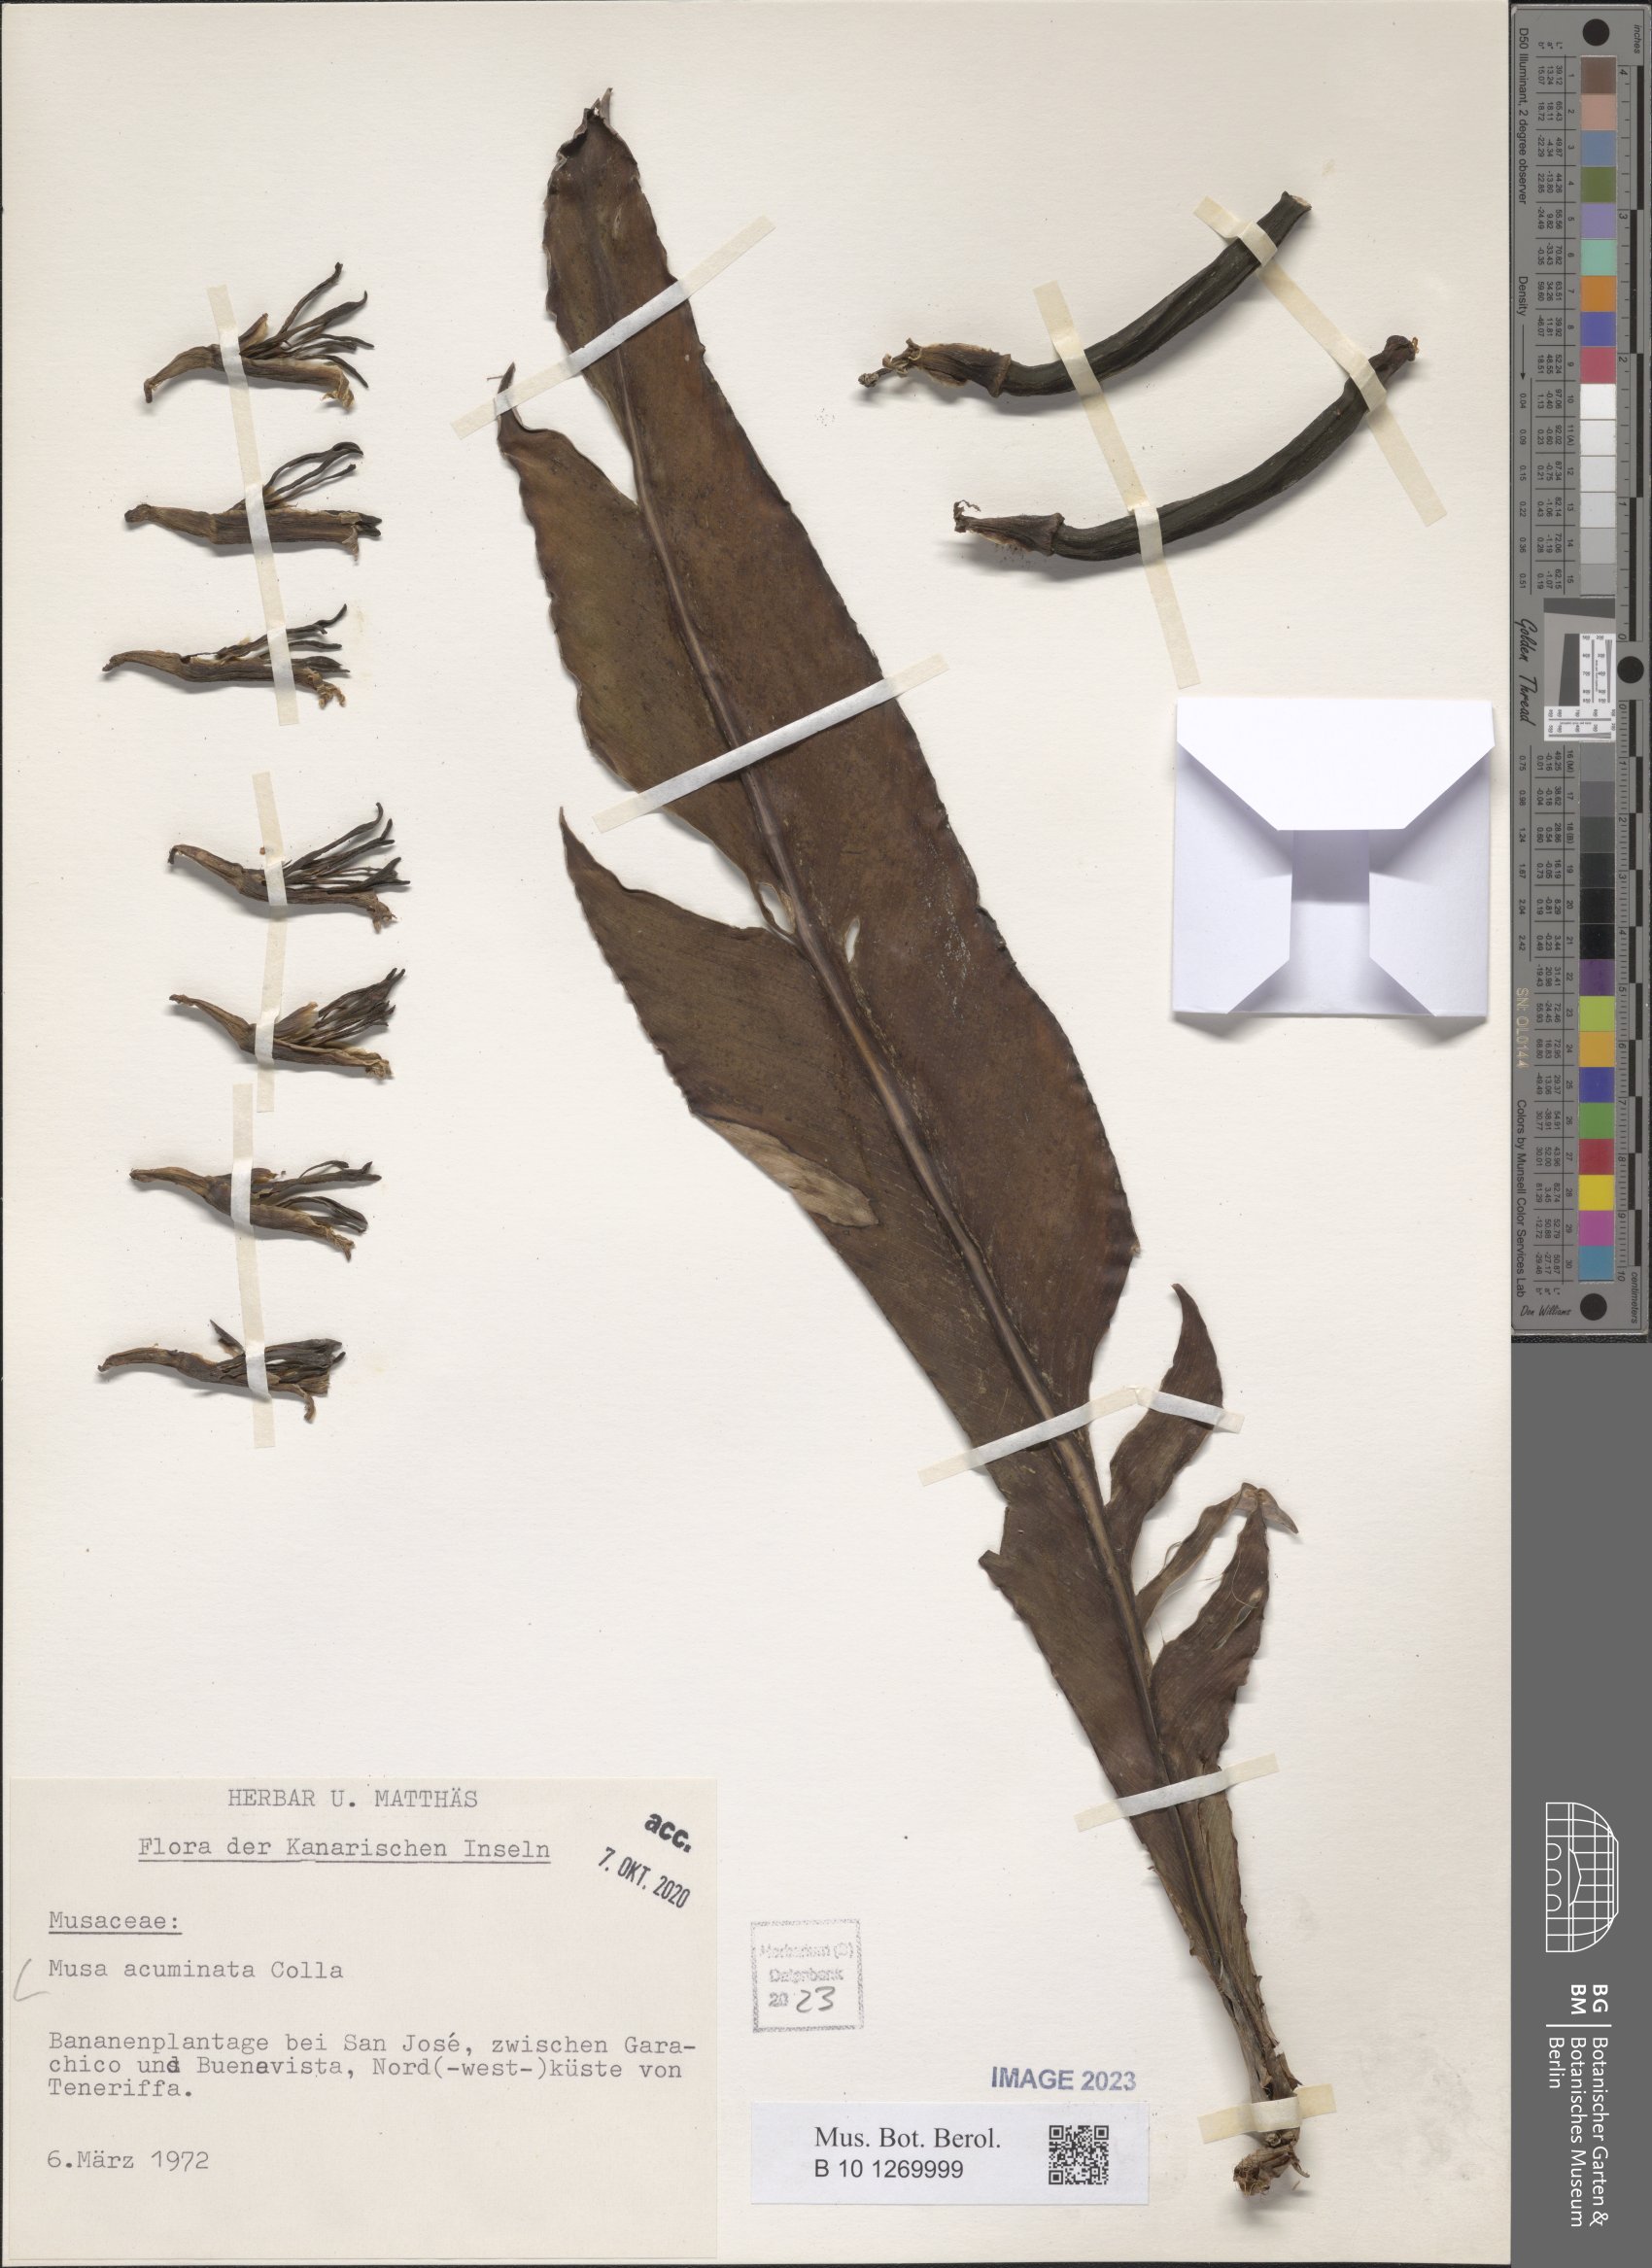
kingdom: Plantae
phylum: Tracheophyta
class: Liliopsida
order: Zingiberales
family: Musaceae
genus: Musa
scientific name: Musa acuminata
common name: Edible banana
